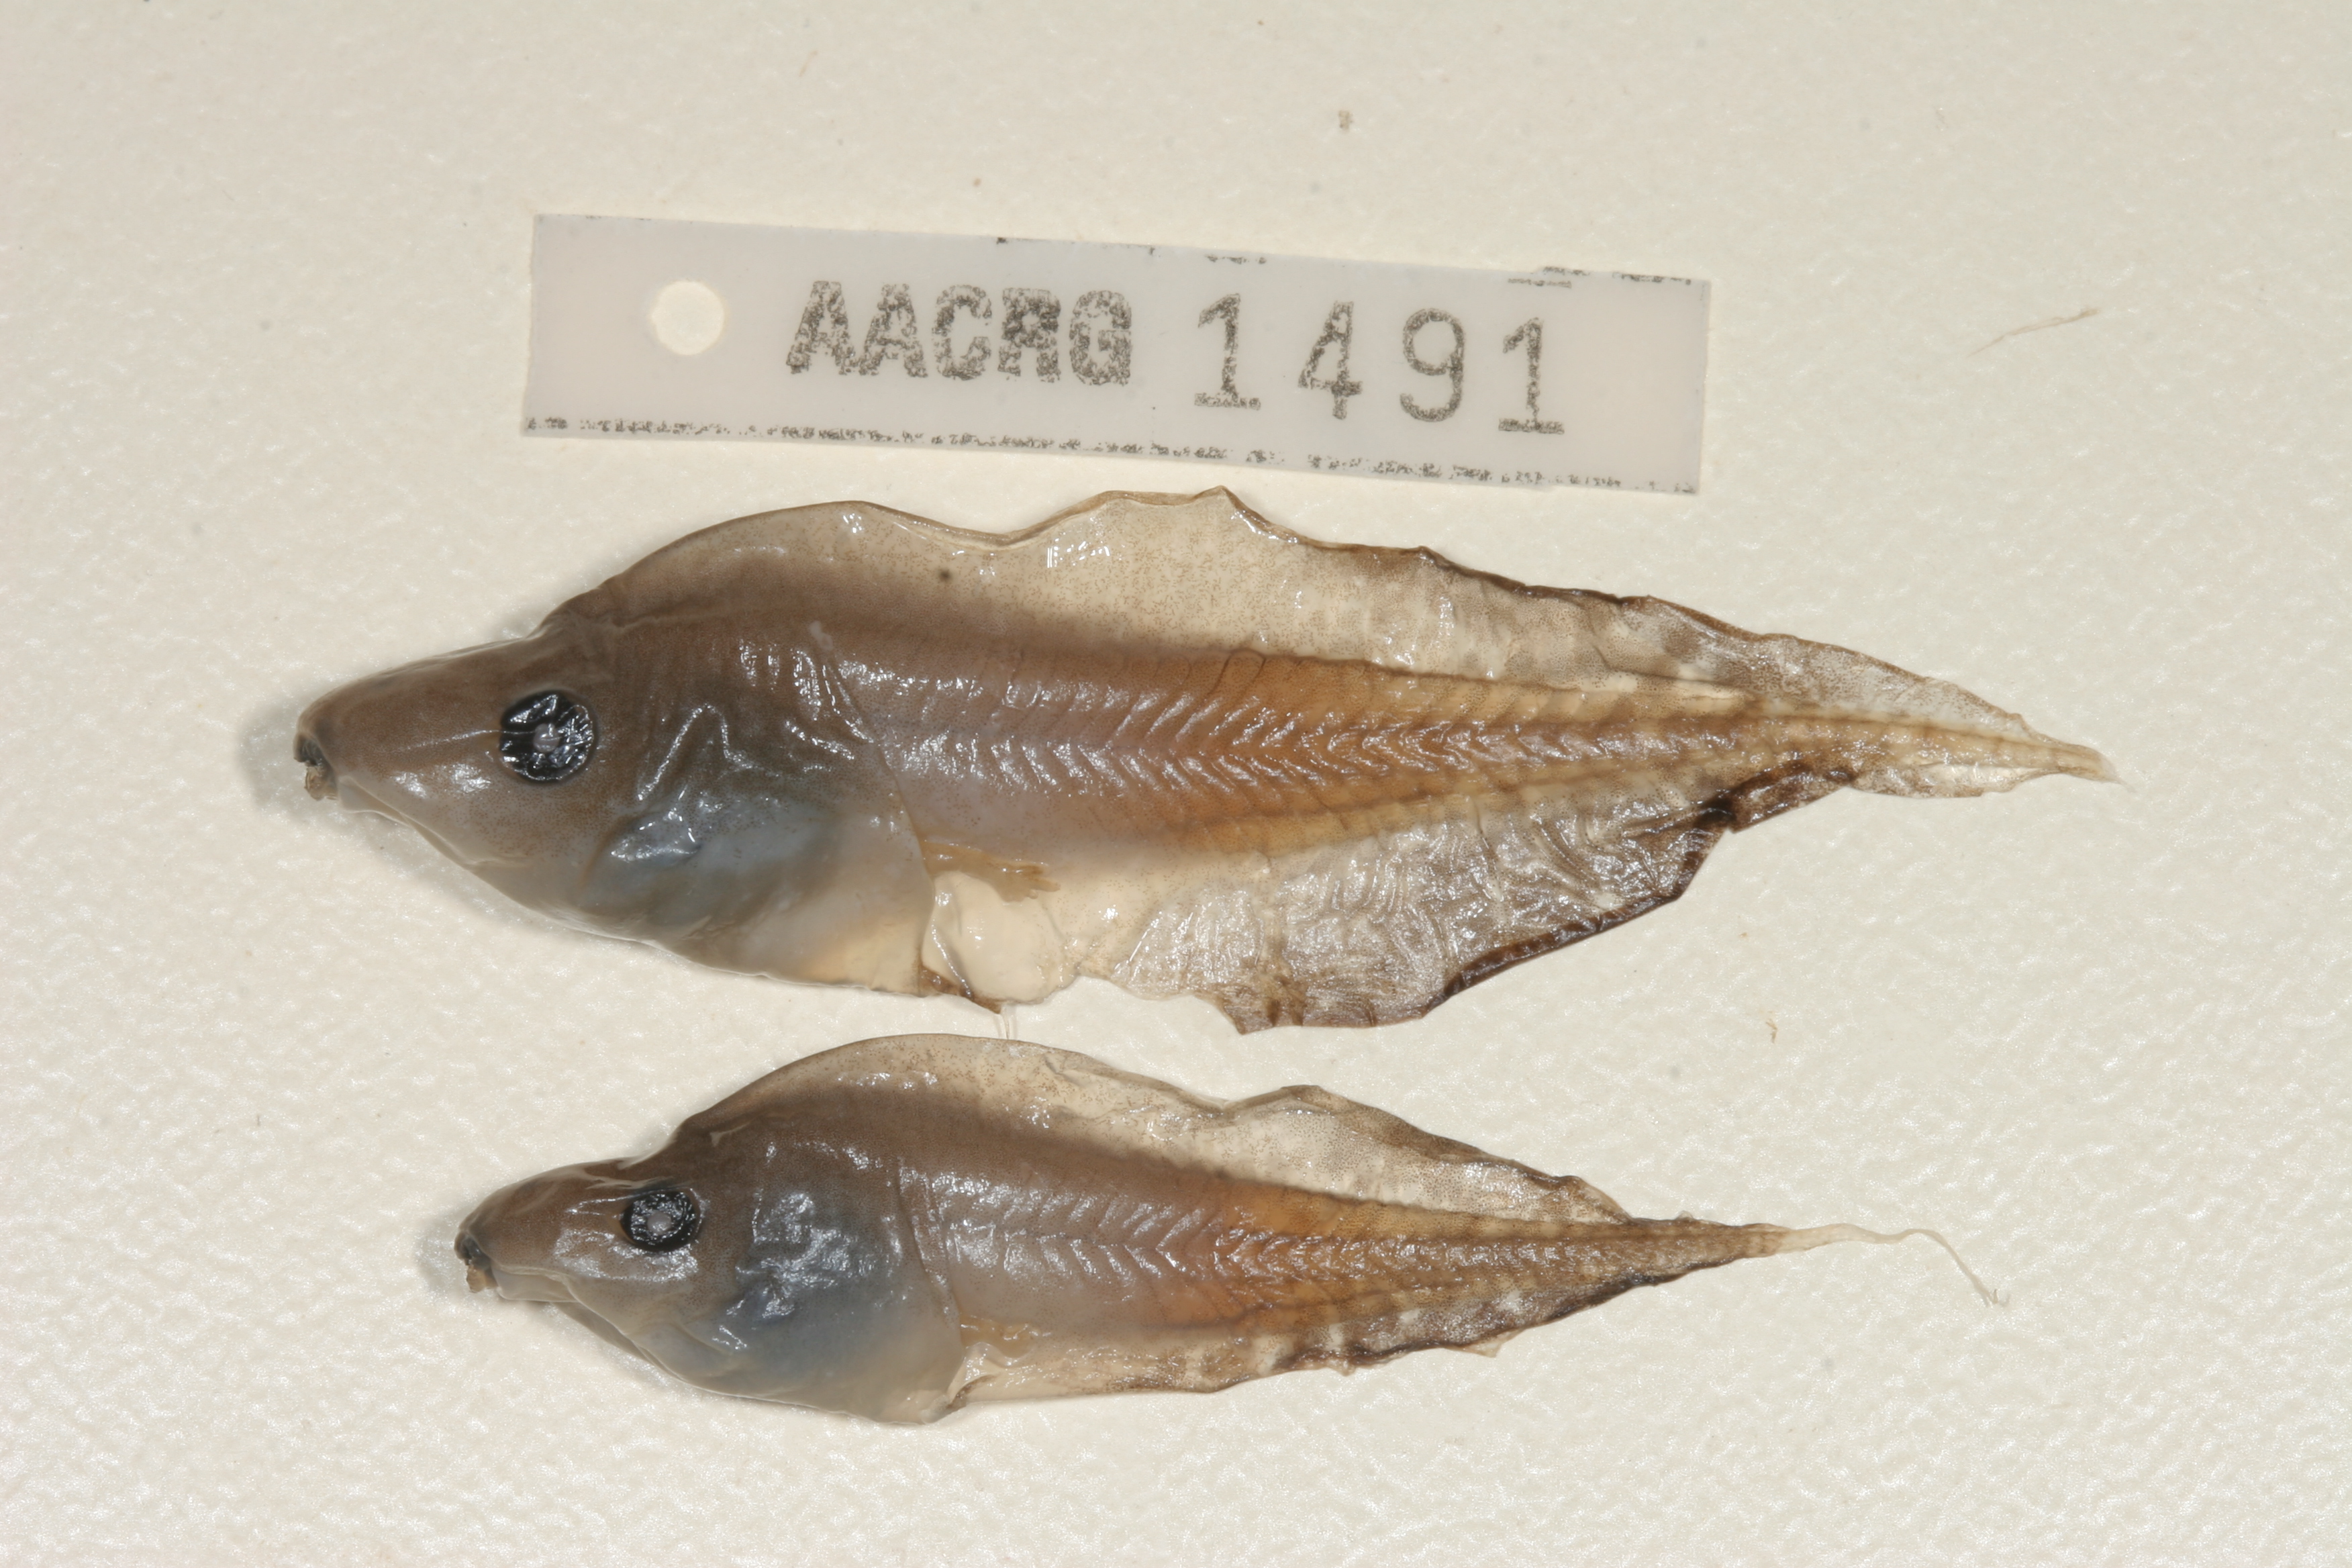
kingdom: Animalia
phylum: Chordata
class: Amphibia
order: Anura
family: Hyperoliidae
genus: Kassina
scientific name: Kassina senegalensis
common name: Senegal land frog
